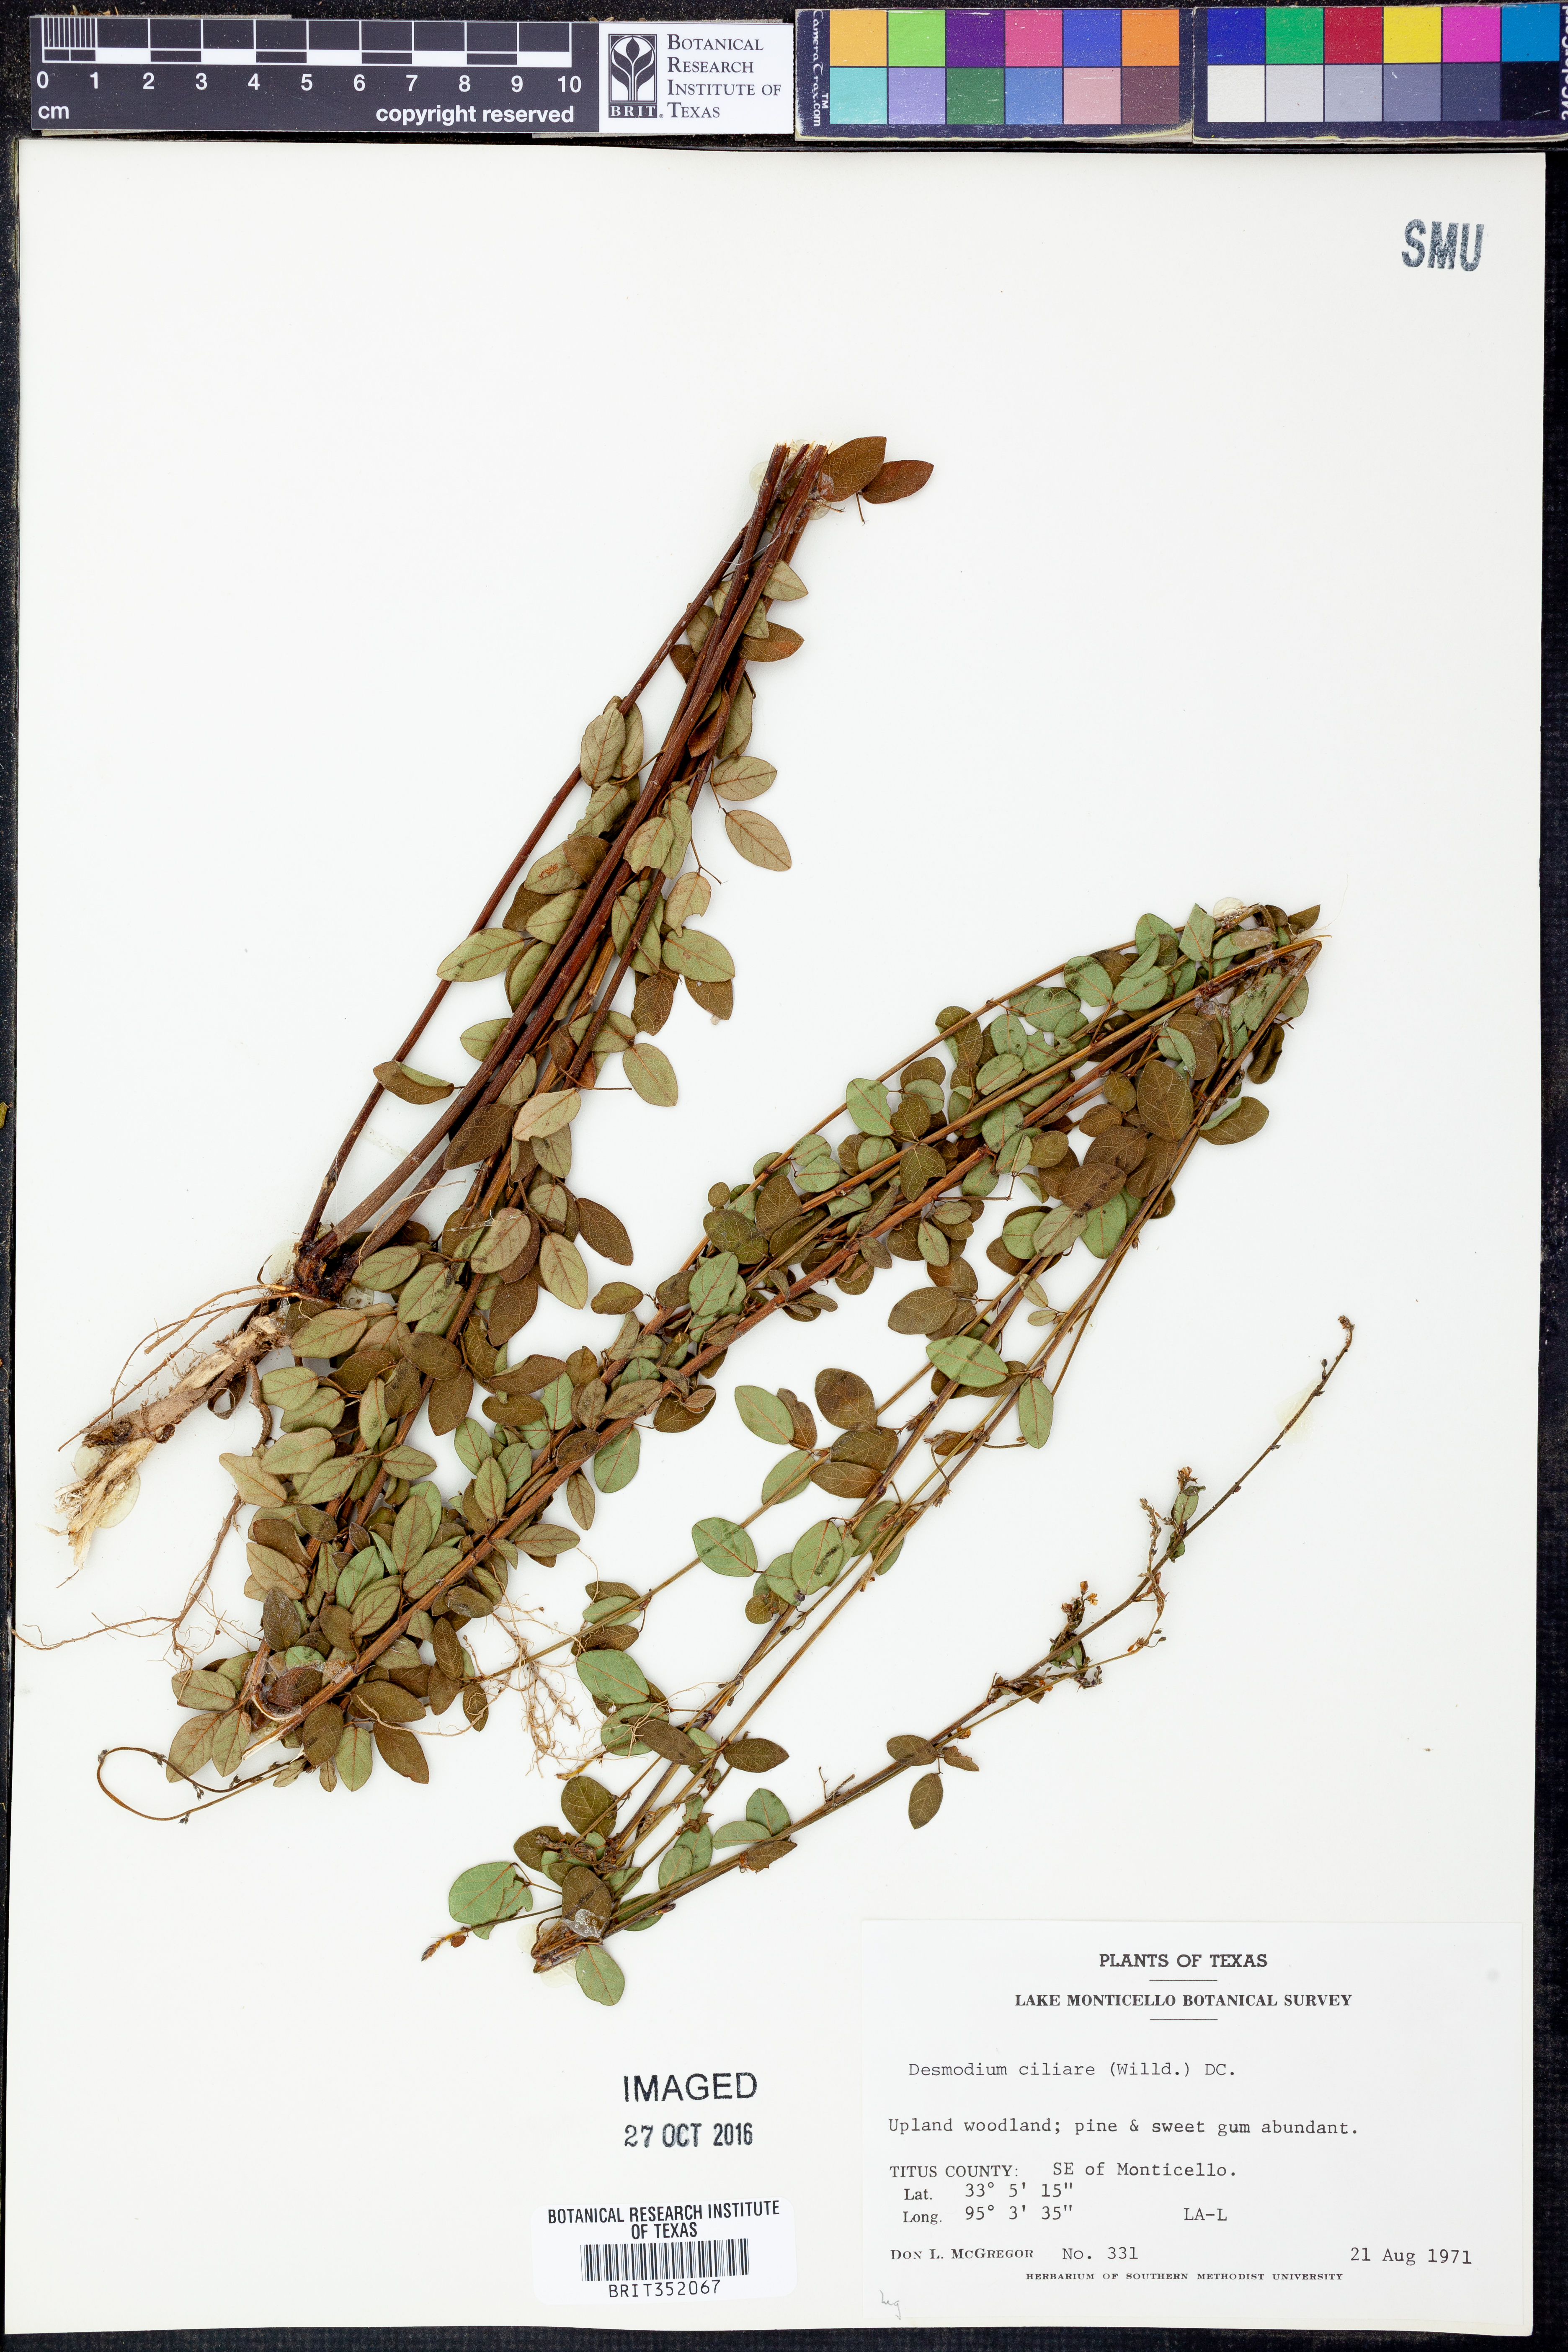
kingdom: Plantae
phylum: Tracheophyta
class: Magnoliopsida
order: Fabales
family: Fabaceae
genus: Desmodium
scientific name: Desmodium ciliare
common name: Hairy small-leaf ticktrefoil
